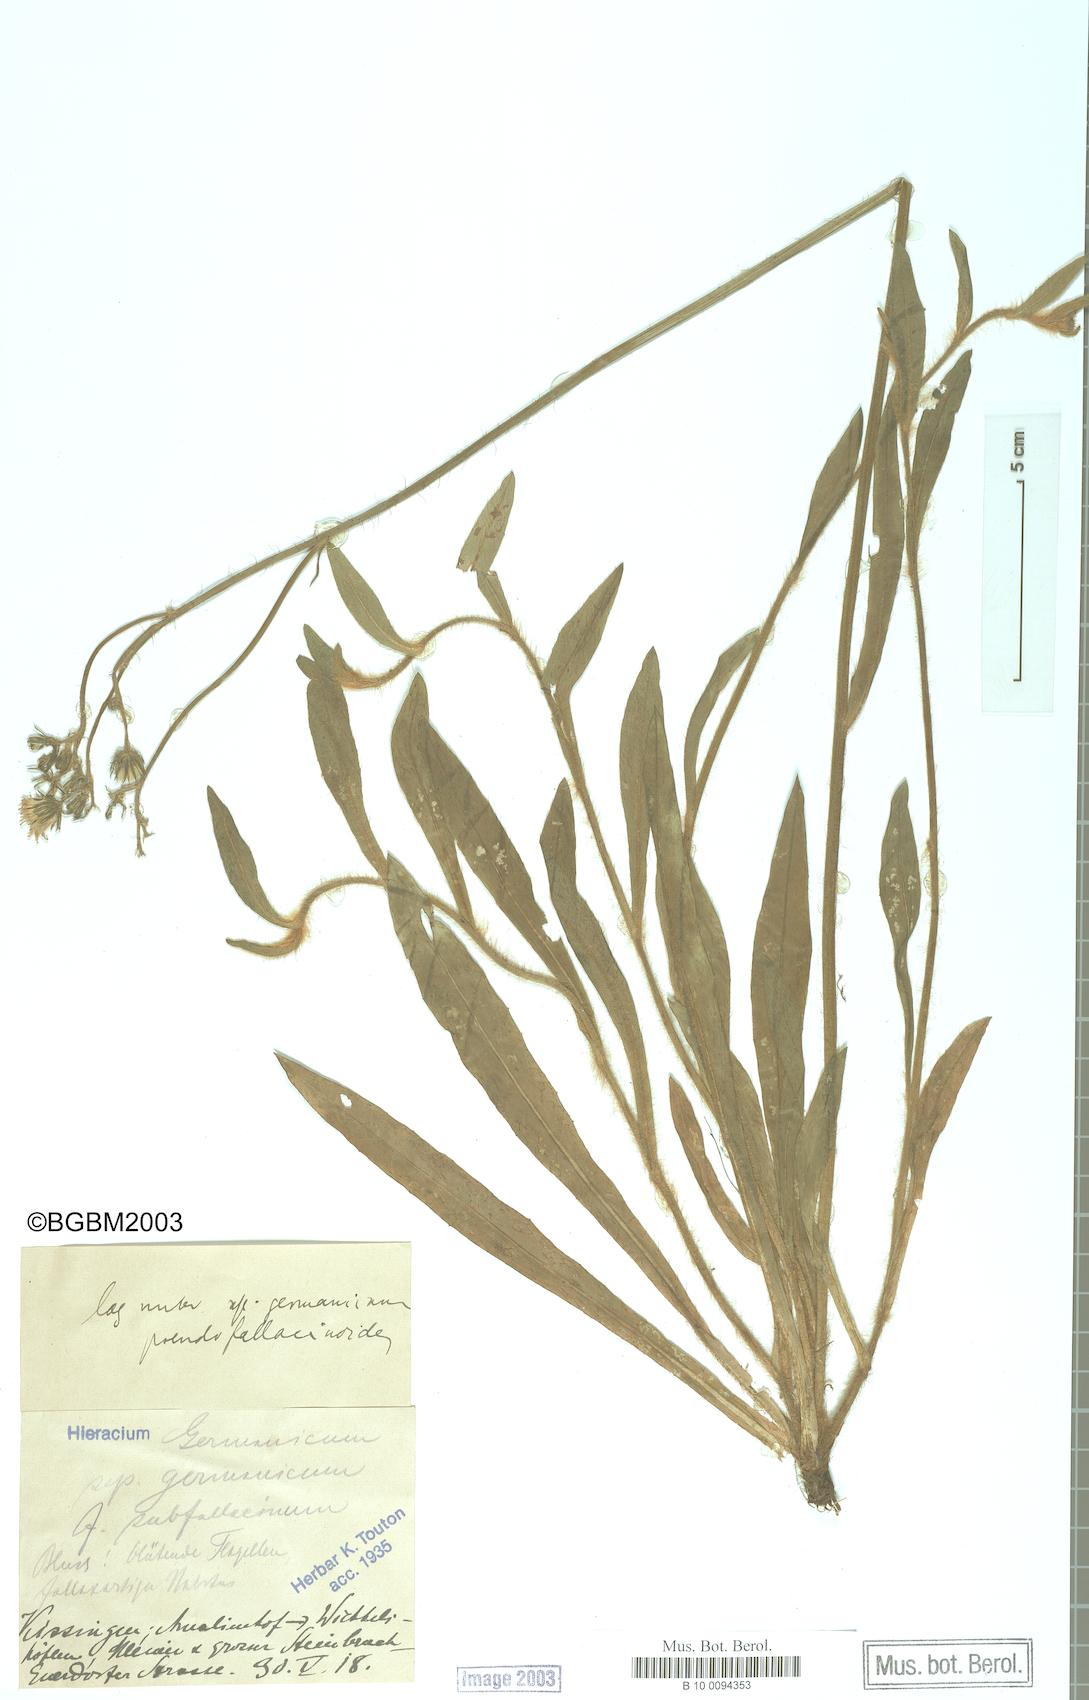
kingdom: Plantae
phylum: Tracheophyta
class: Magnoliopsida
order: Asterales
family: Asteraceae
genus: Pilosella
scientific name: Pilosella fallacina
